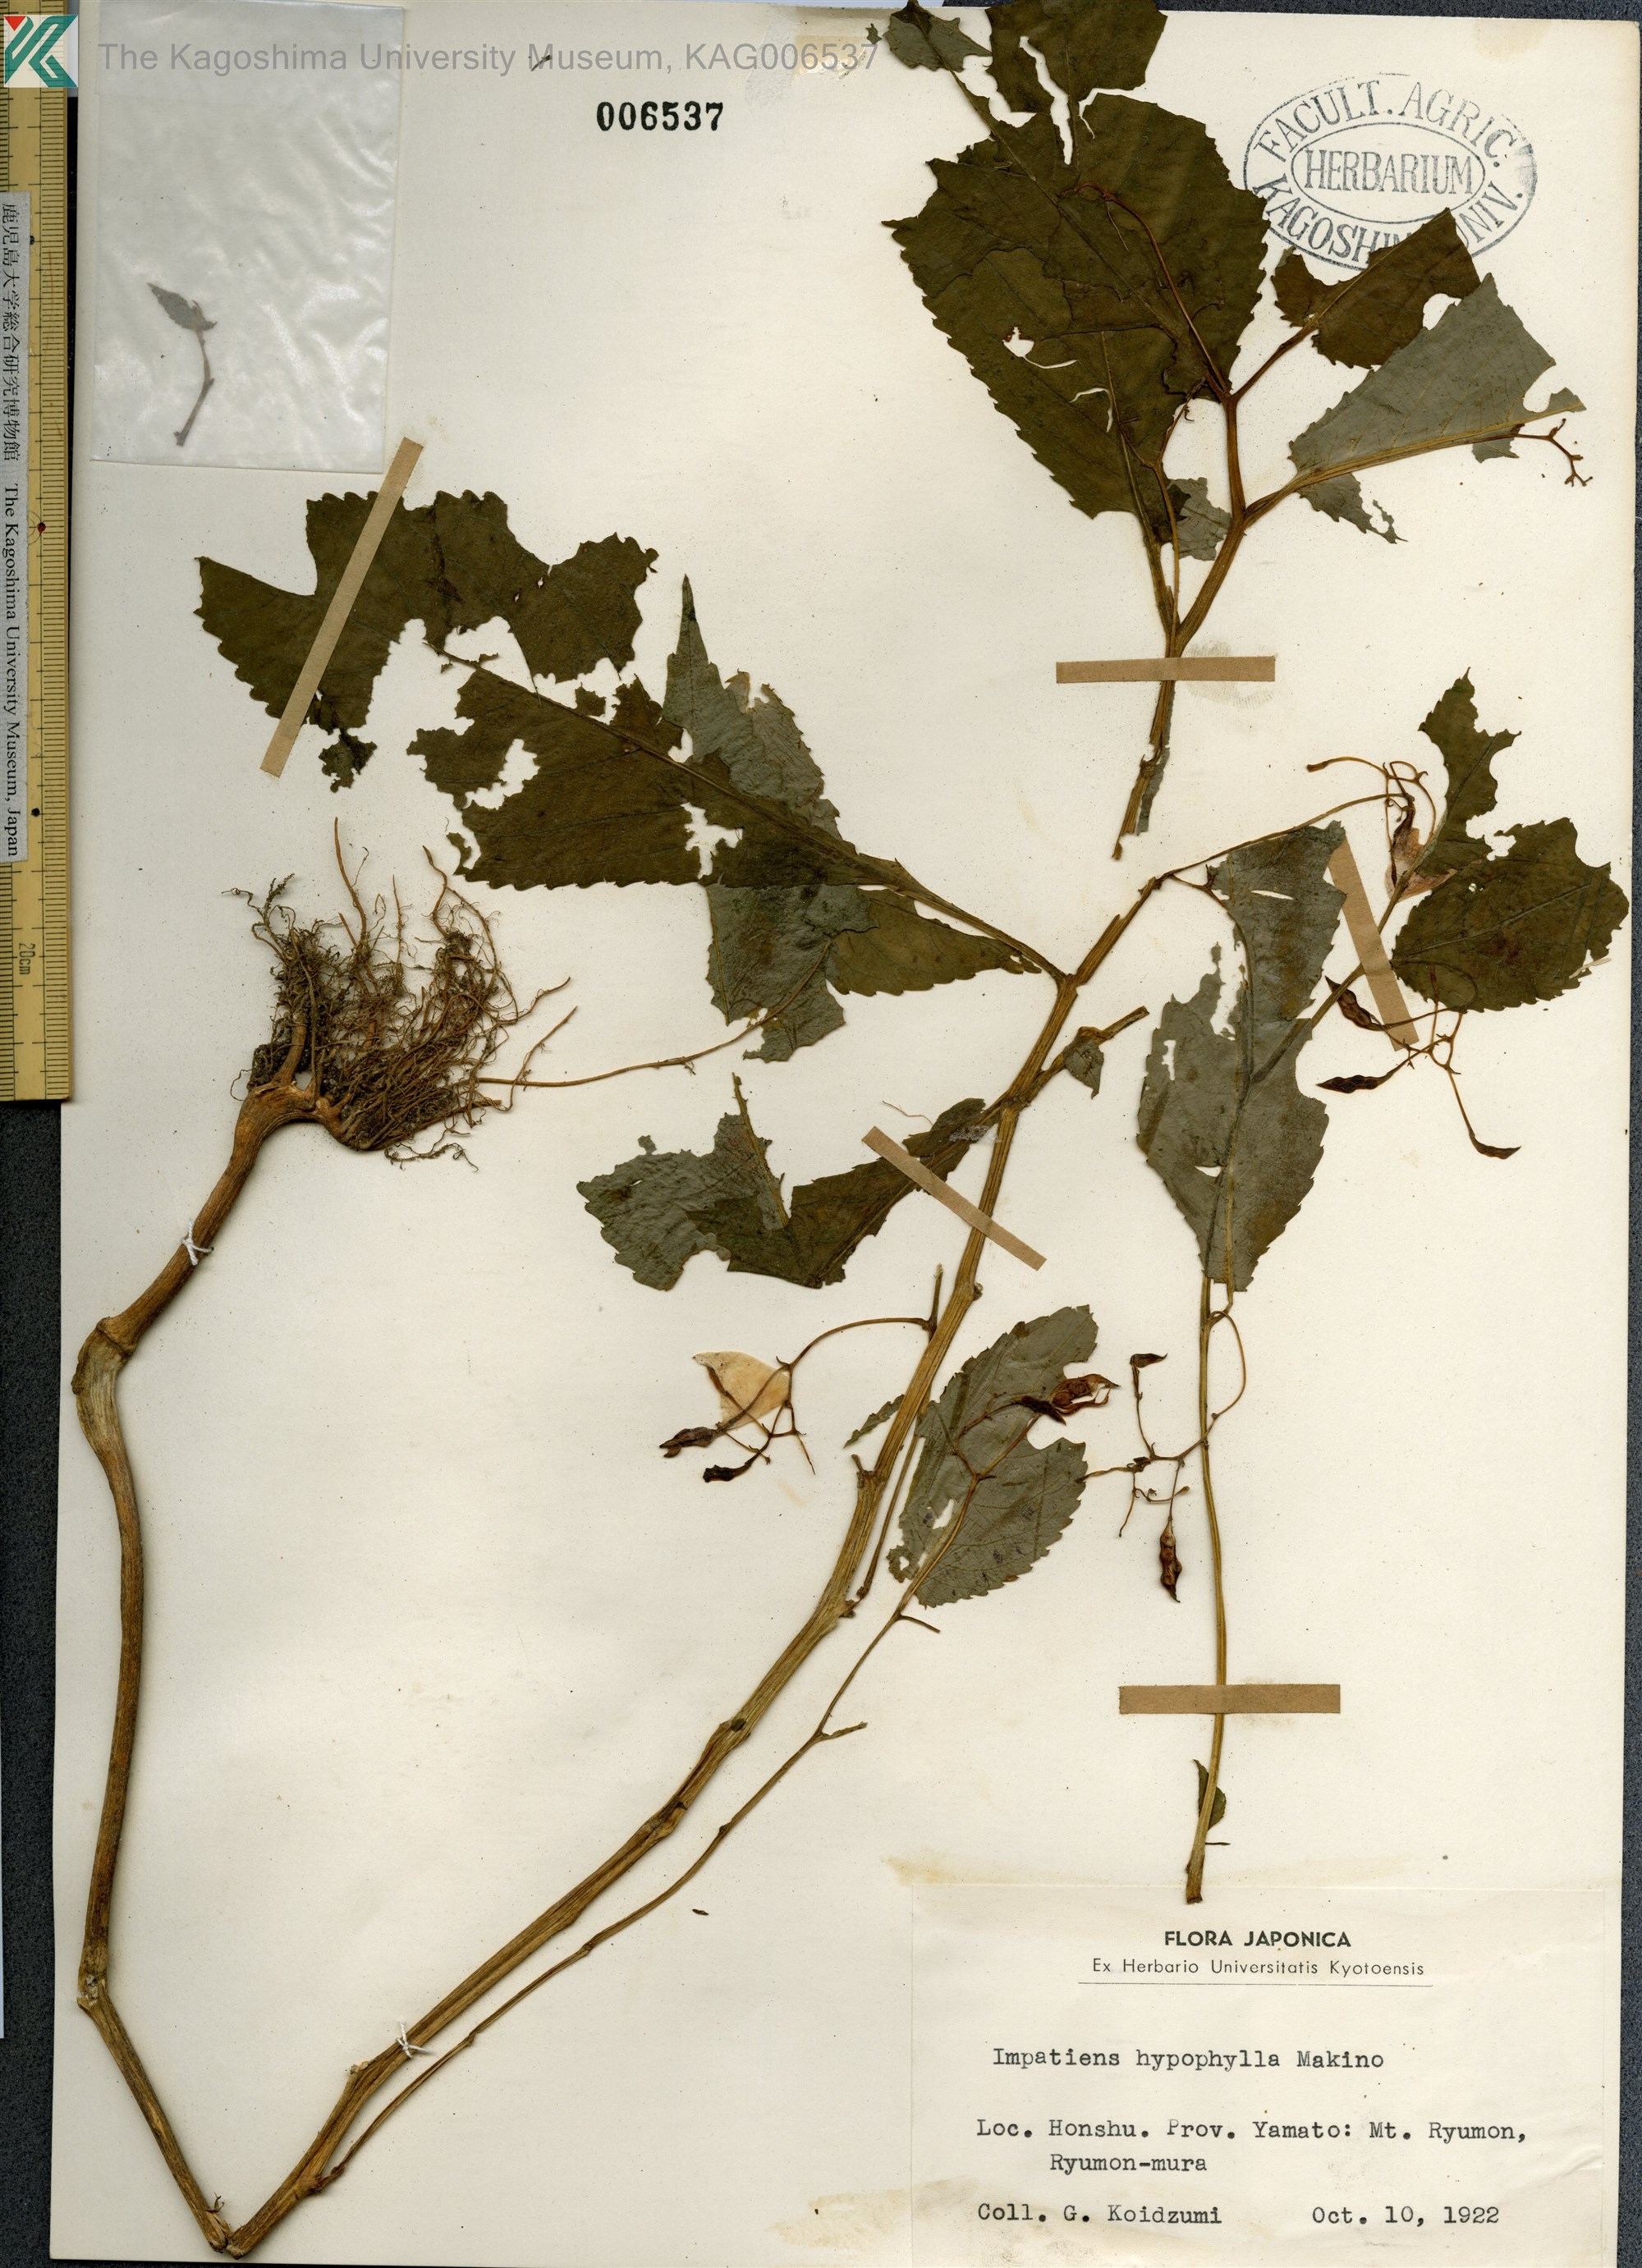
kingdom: Plantae
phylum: Tracheophyta
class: Magnoliopsida
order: Ericales
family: Balsaminaceae
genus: Impatiens
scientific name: Impatiens hypophylla
